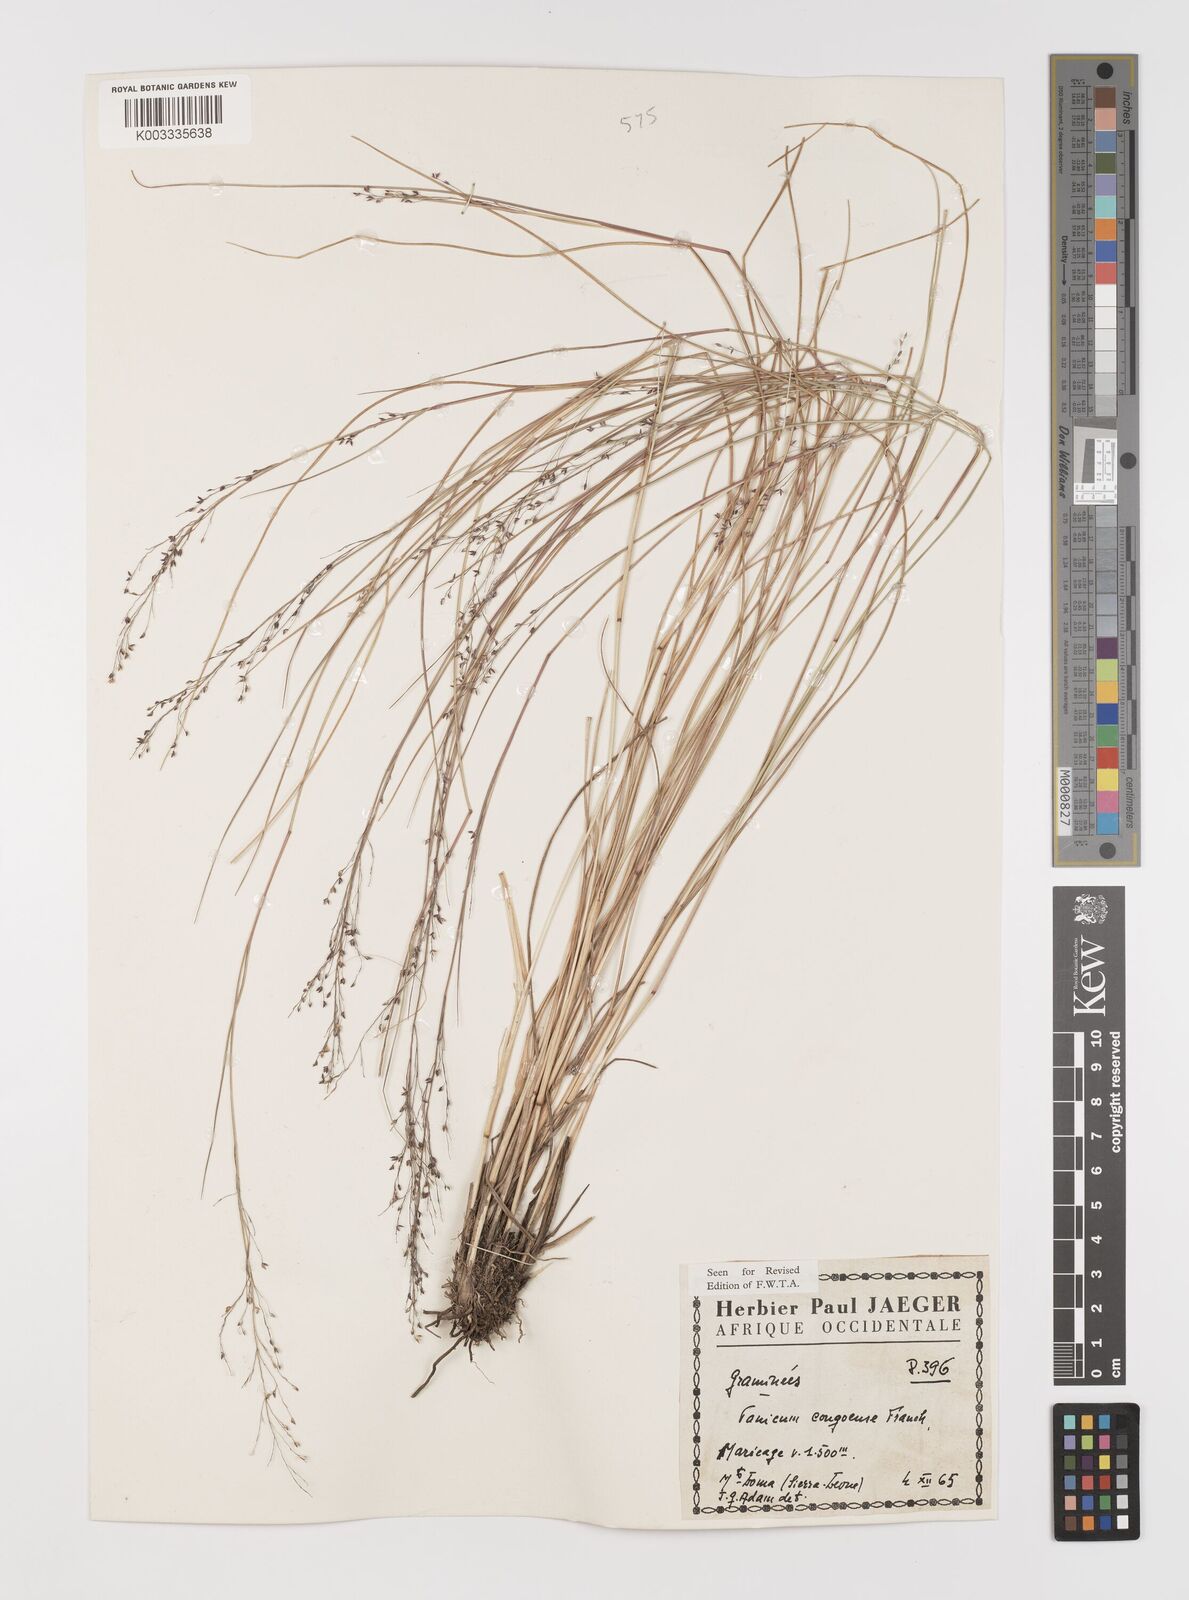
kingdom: Plantae
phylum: Tracheophyta
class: Liliopsida
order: Poales
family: Poaceae
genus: Panicum
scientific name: Panicum congoense
